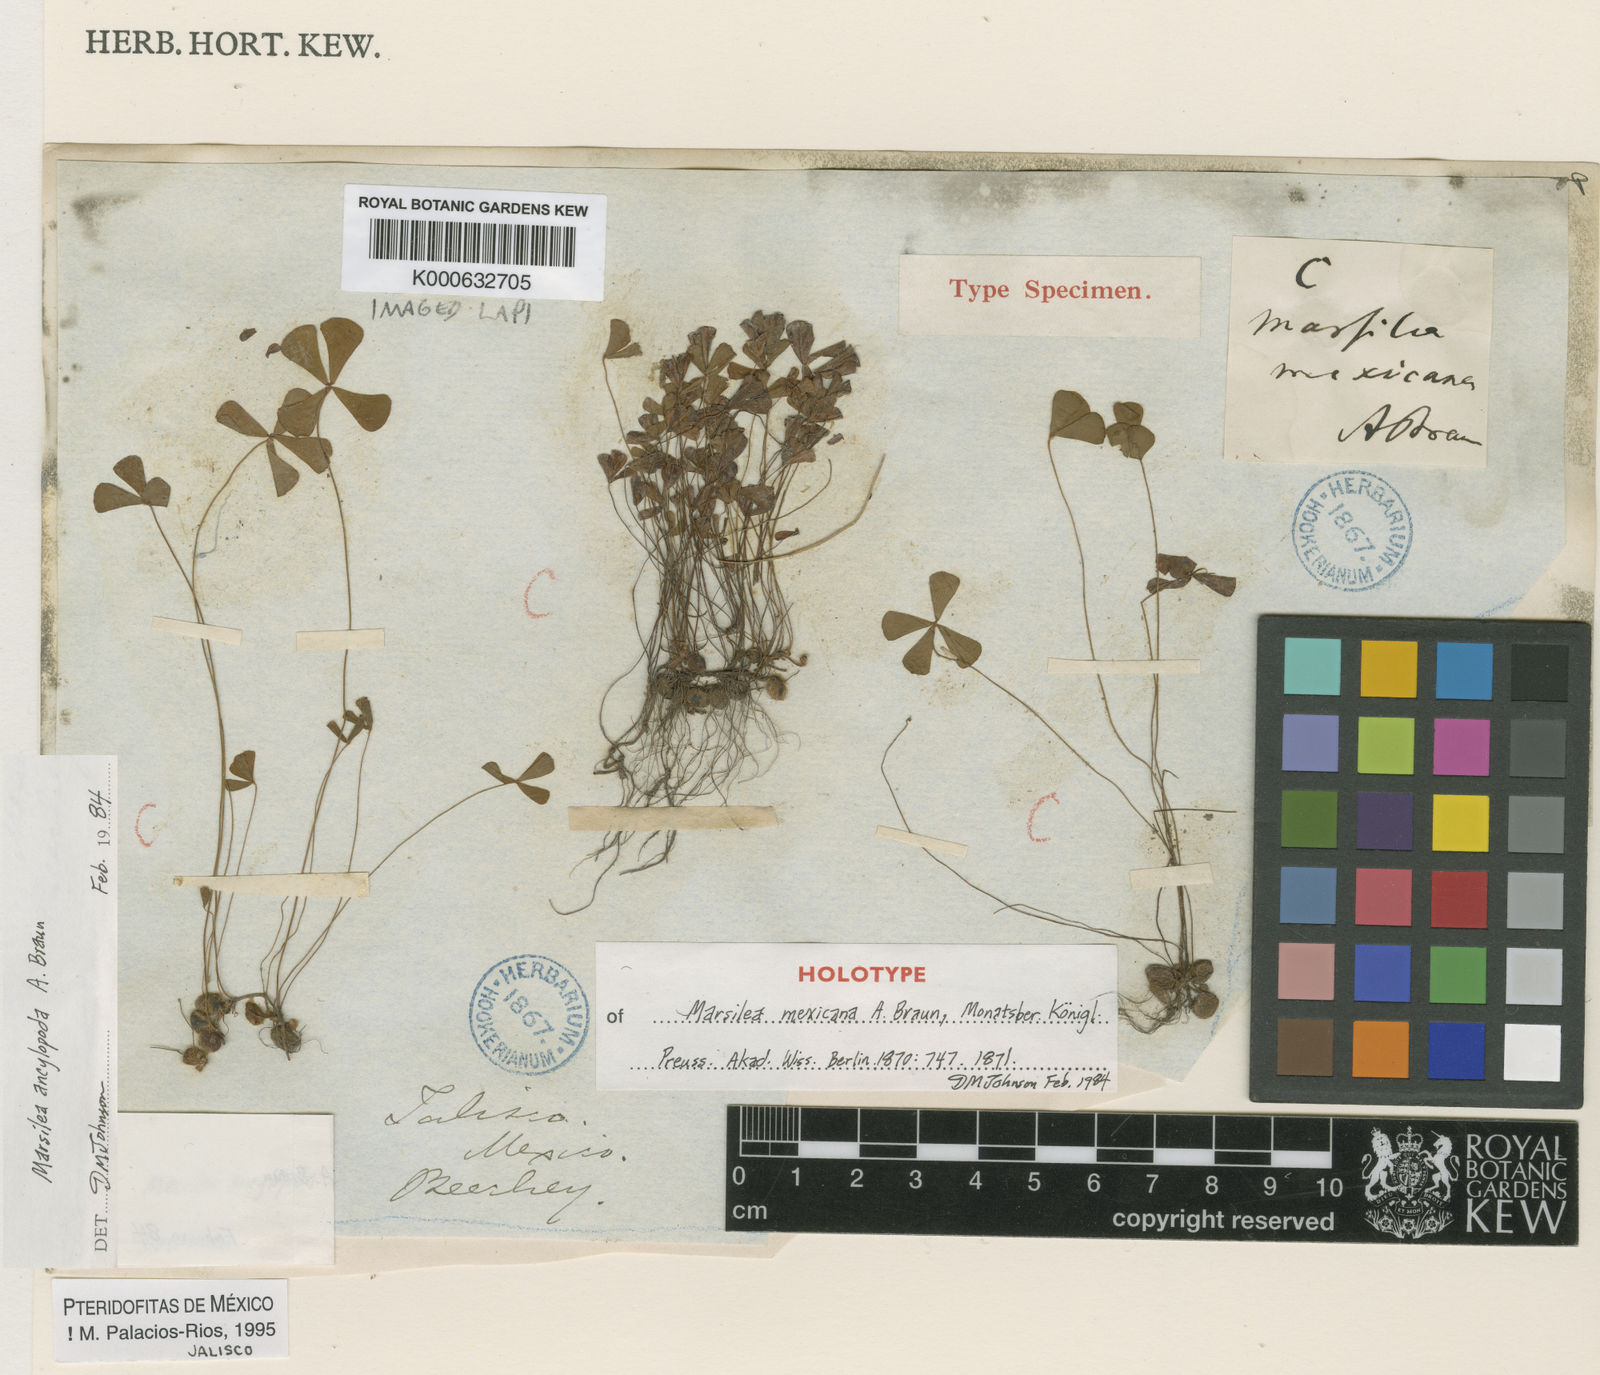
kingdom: Plantae
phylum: Tracheophyta
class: Polypodiopsida
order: Salviniales
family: Marsileaceae
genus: Marsilea
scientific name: Marsilea
